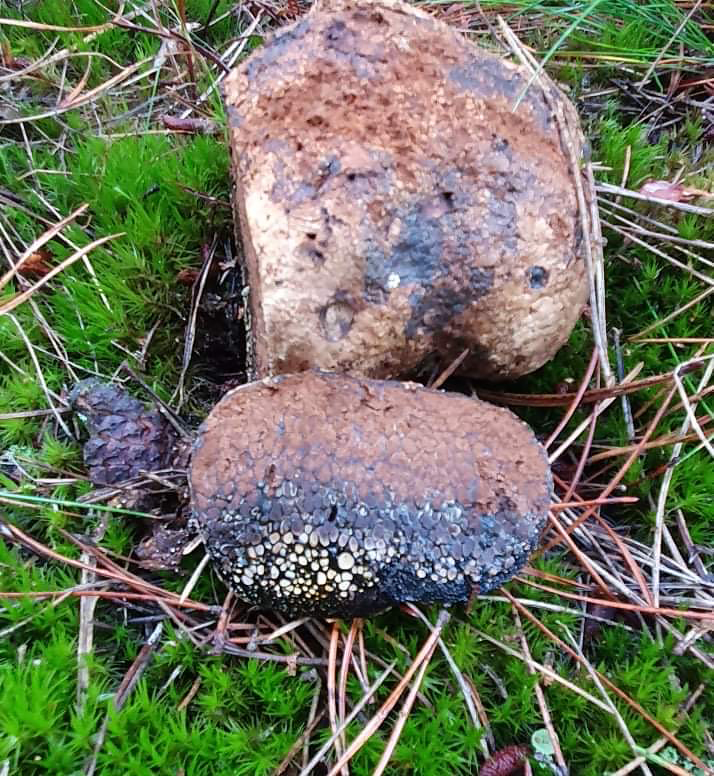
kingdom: Fungi
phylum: Basidiomycota
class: Agaricomycetes
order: Boletales
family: Sclerodermataceae
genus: Pisolithus
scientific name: Pisolithus capsulifer
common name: farvebold
